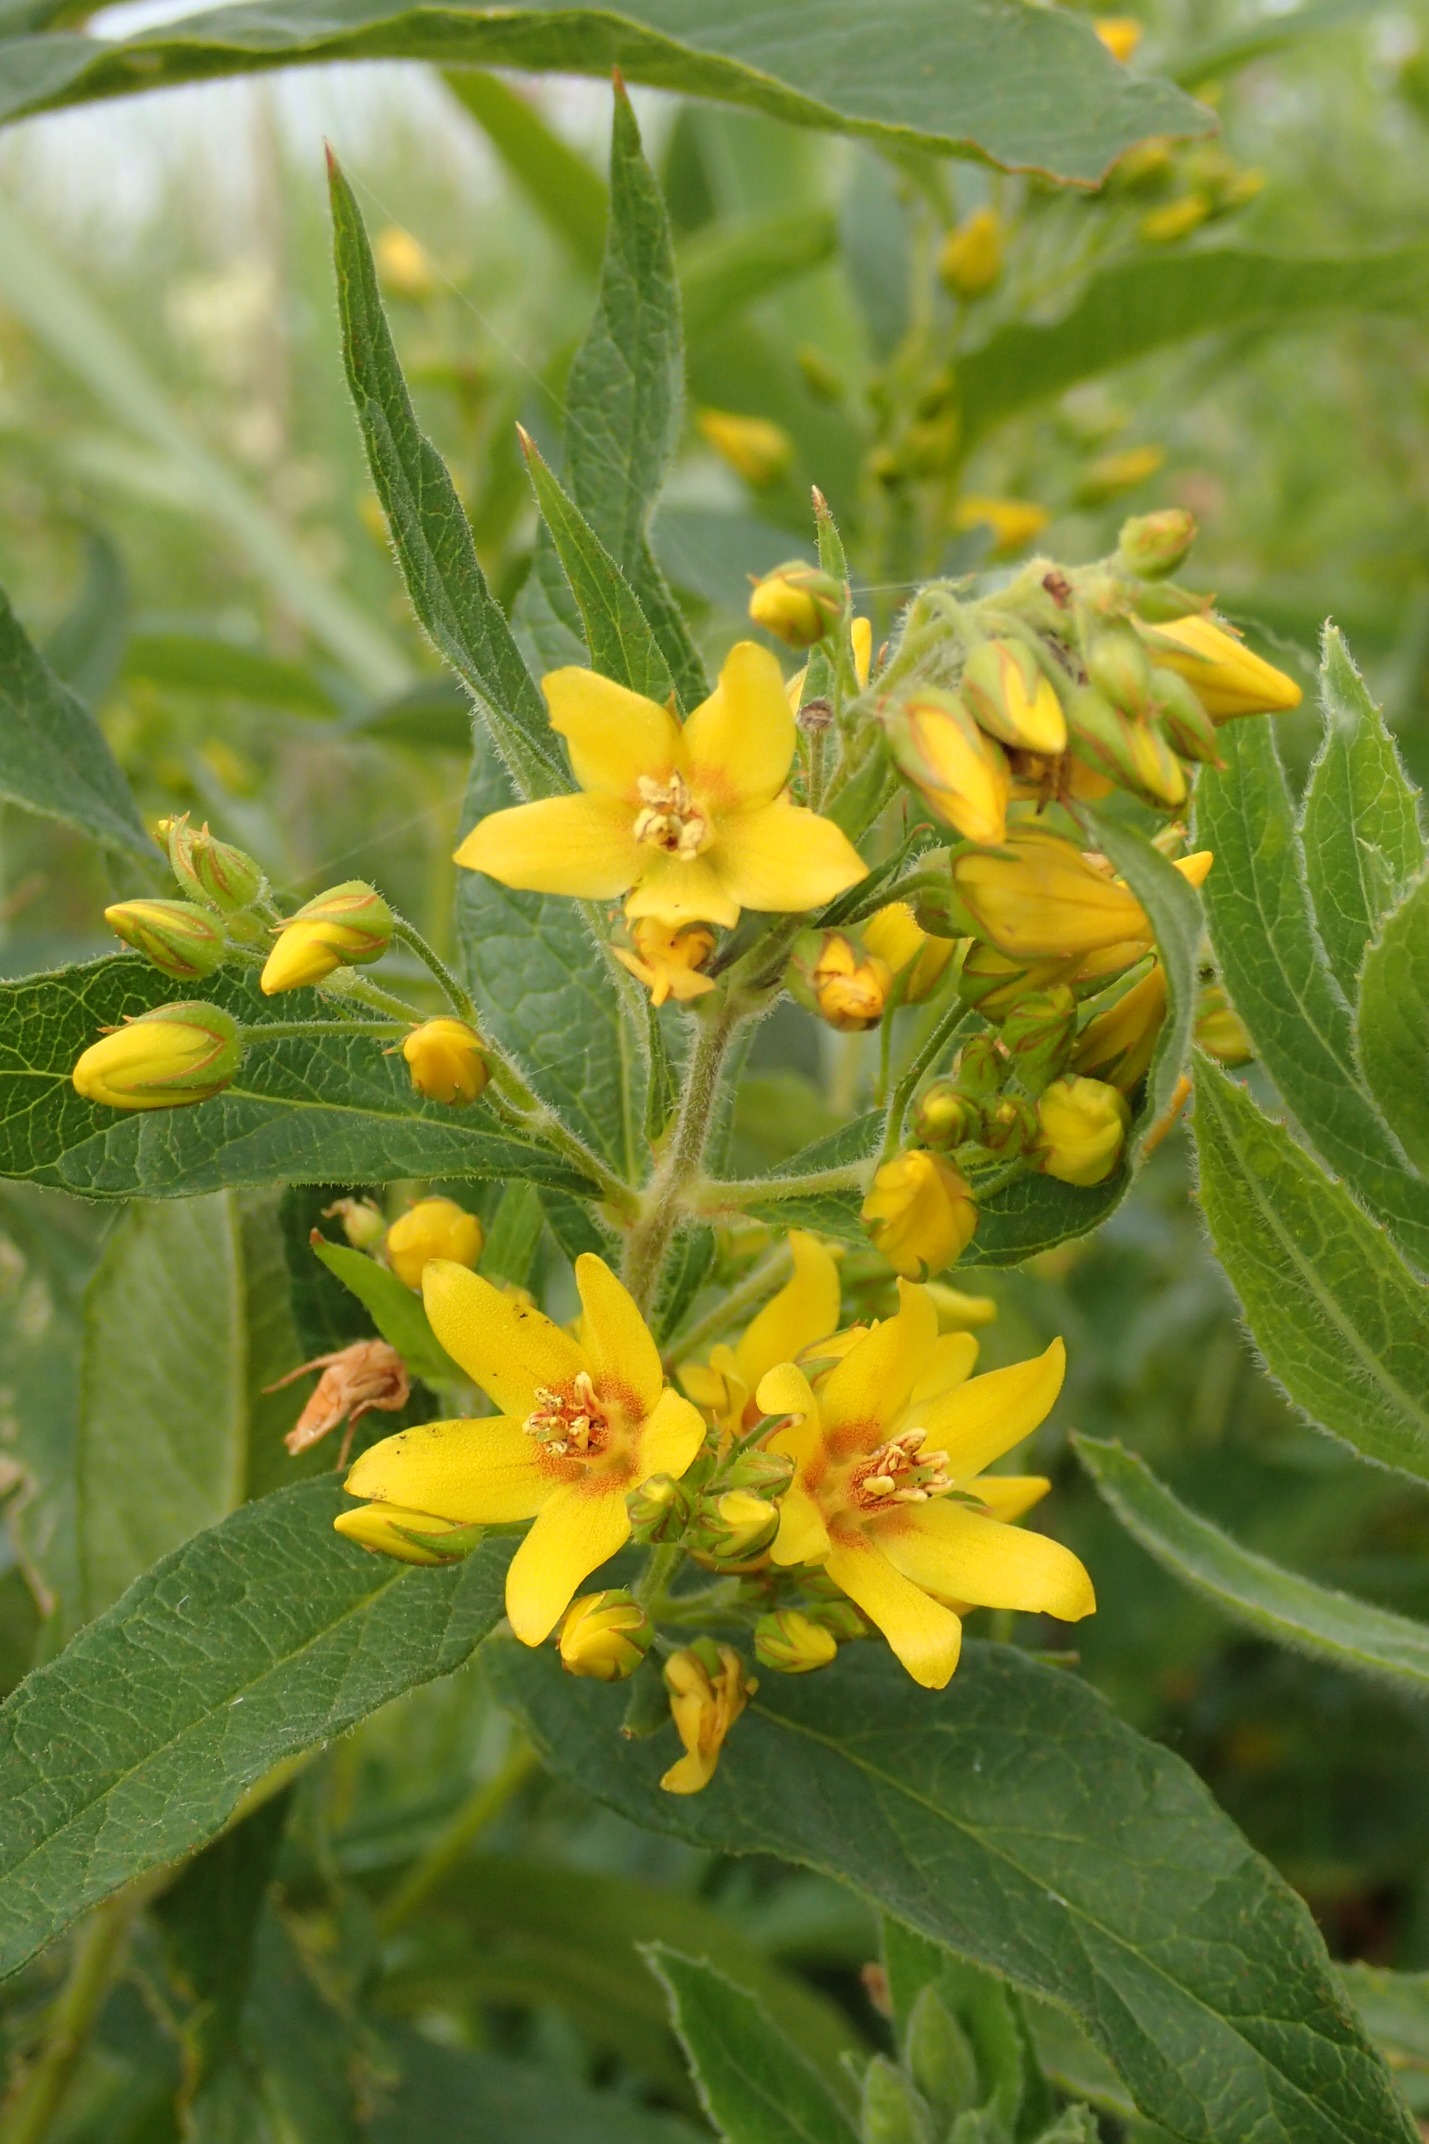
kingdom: Plantae
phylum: Tracheophyta
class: Magnoliopsida
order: Ericales
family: Primulaceae
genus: Lysimachia
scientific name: Lysimachia vulgaris
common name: Almindelig fredløs
